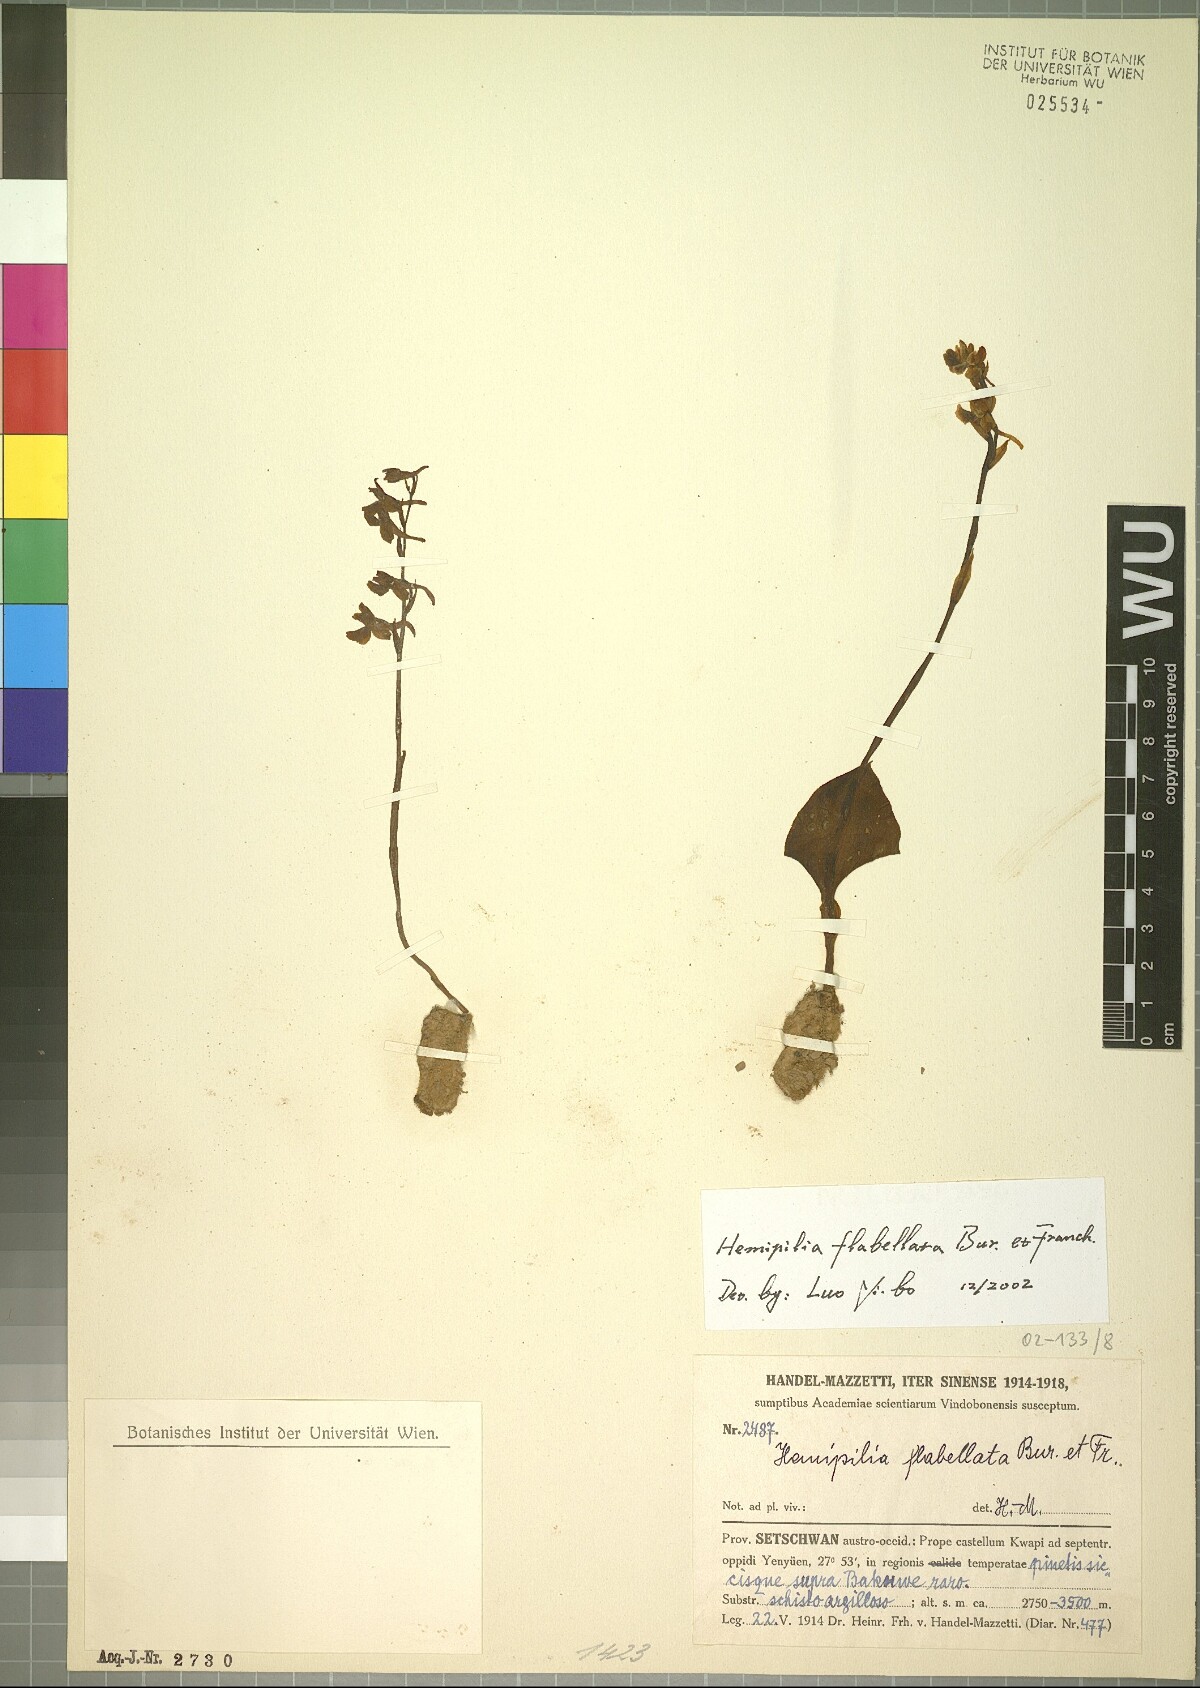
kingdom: Plantae
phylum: Tracheophyta
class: Liliopsida
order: Asparagales
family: Orchidaceae
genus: Hemipilia
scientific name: Hemipilia flabellata
